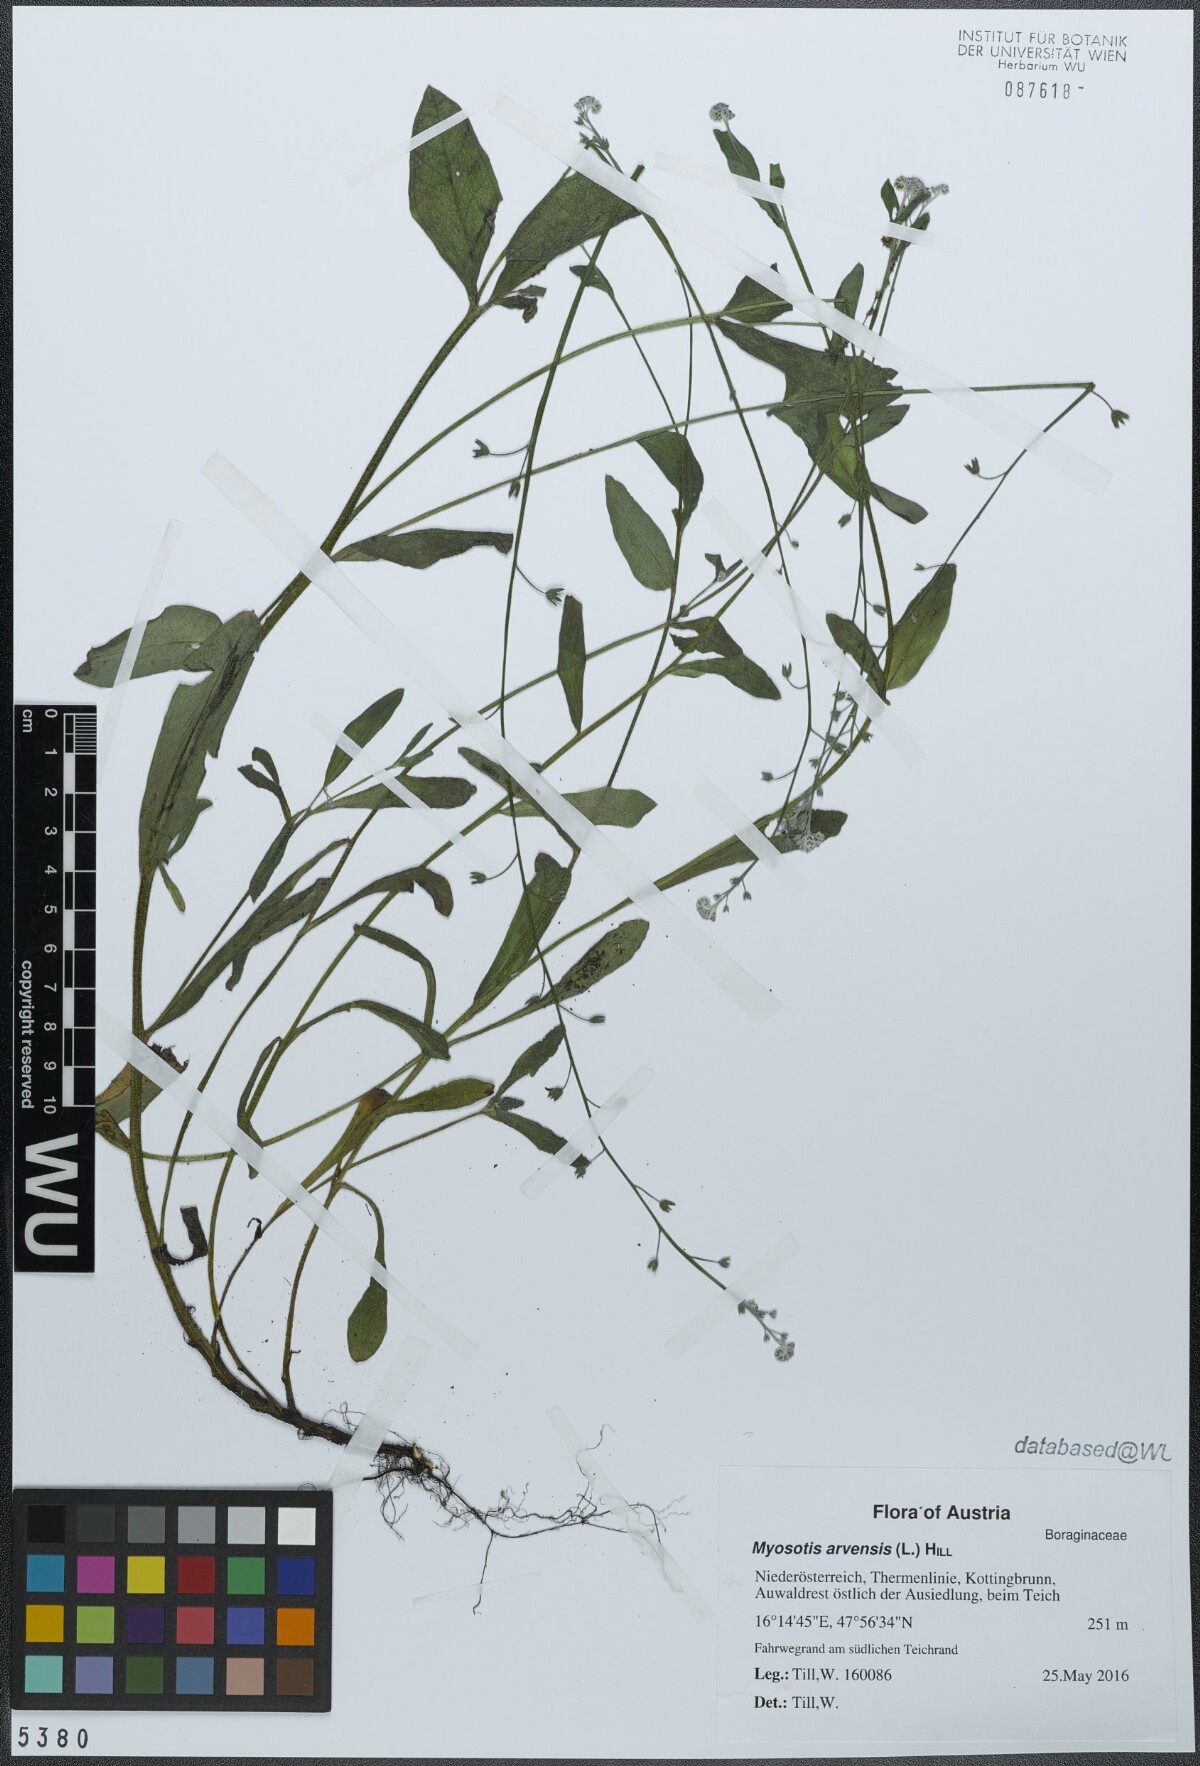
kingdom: Plantae
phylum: Tracheophyta
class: Magnoliopsida
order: Boraginales
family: Boraginaceae
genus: Myosotis
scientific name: Myosotis arvensis
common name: Field forget-me-not
